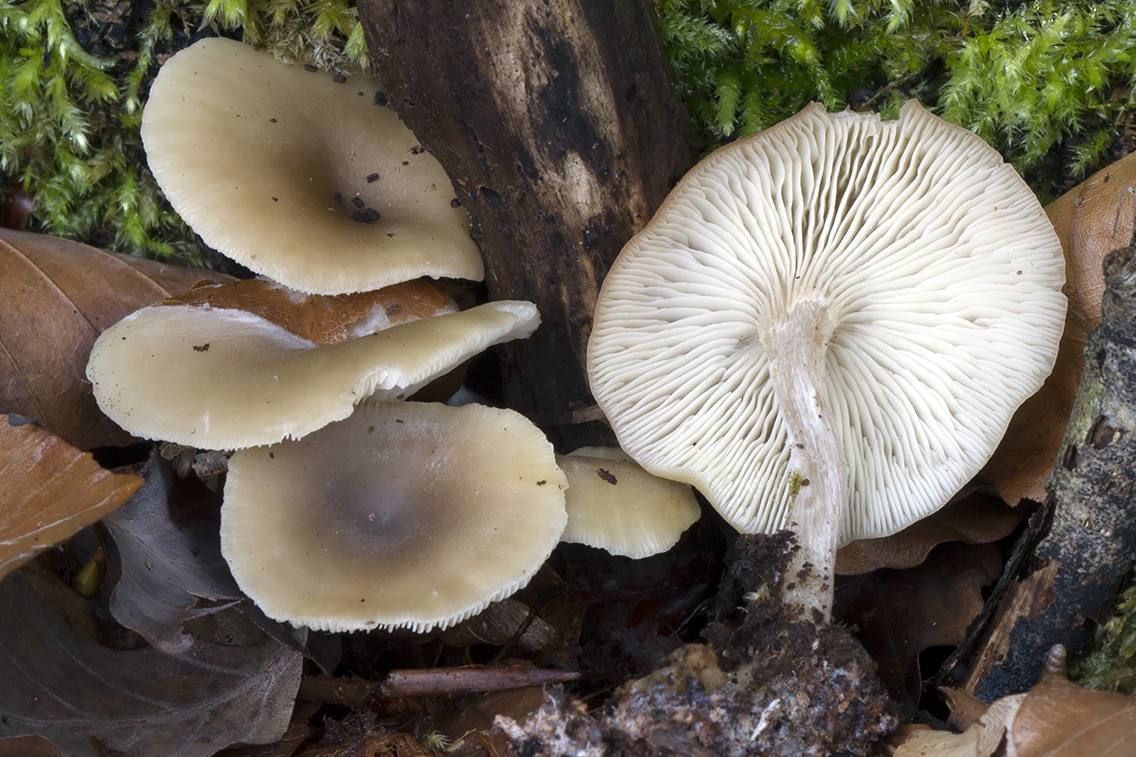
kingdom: Fungi
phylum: Basidiomycota
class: Agaricomycetes
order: Agaricales
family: Tricholomataceae
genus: Clitocybe
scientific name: Clitocybe
